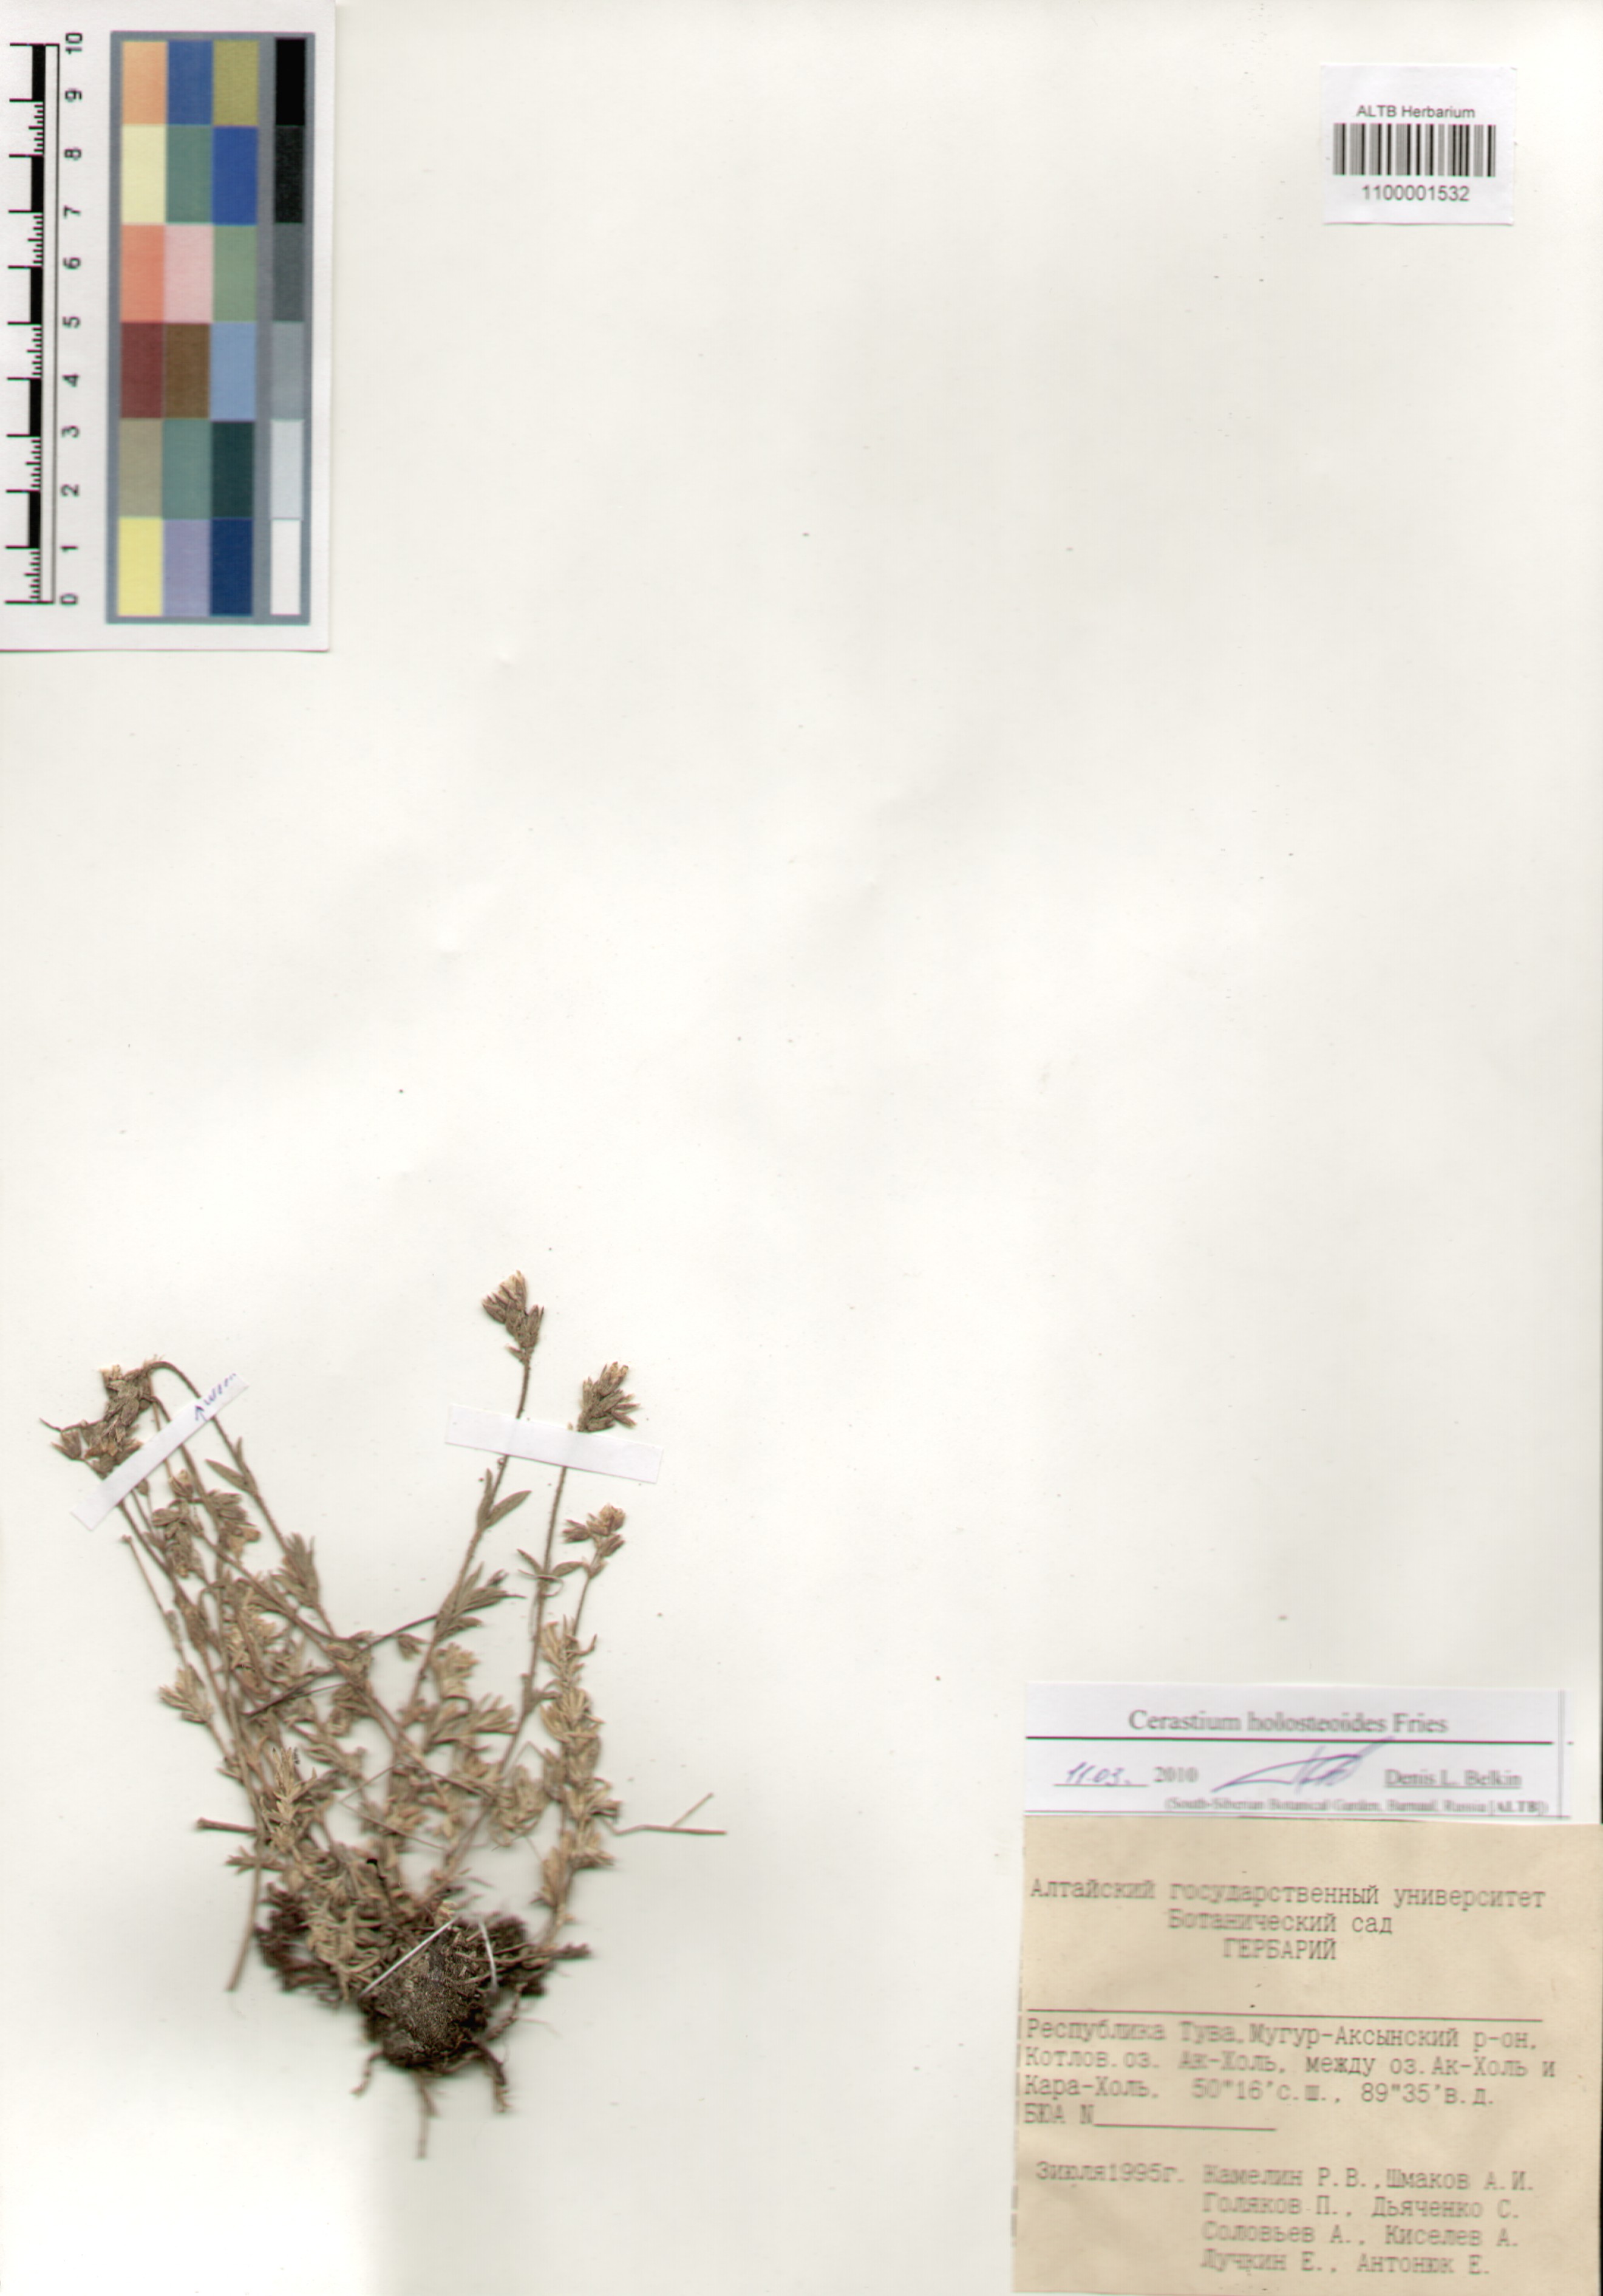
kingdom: Plantae
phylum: Tracheophyta
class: Magnoliopsida
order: Caryophyllales
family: Caryophyllaceae
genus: Cerastium
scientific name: Cerastium holosteoides
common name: Big chickweed
